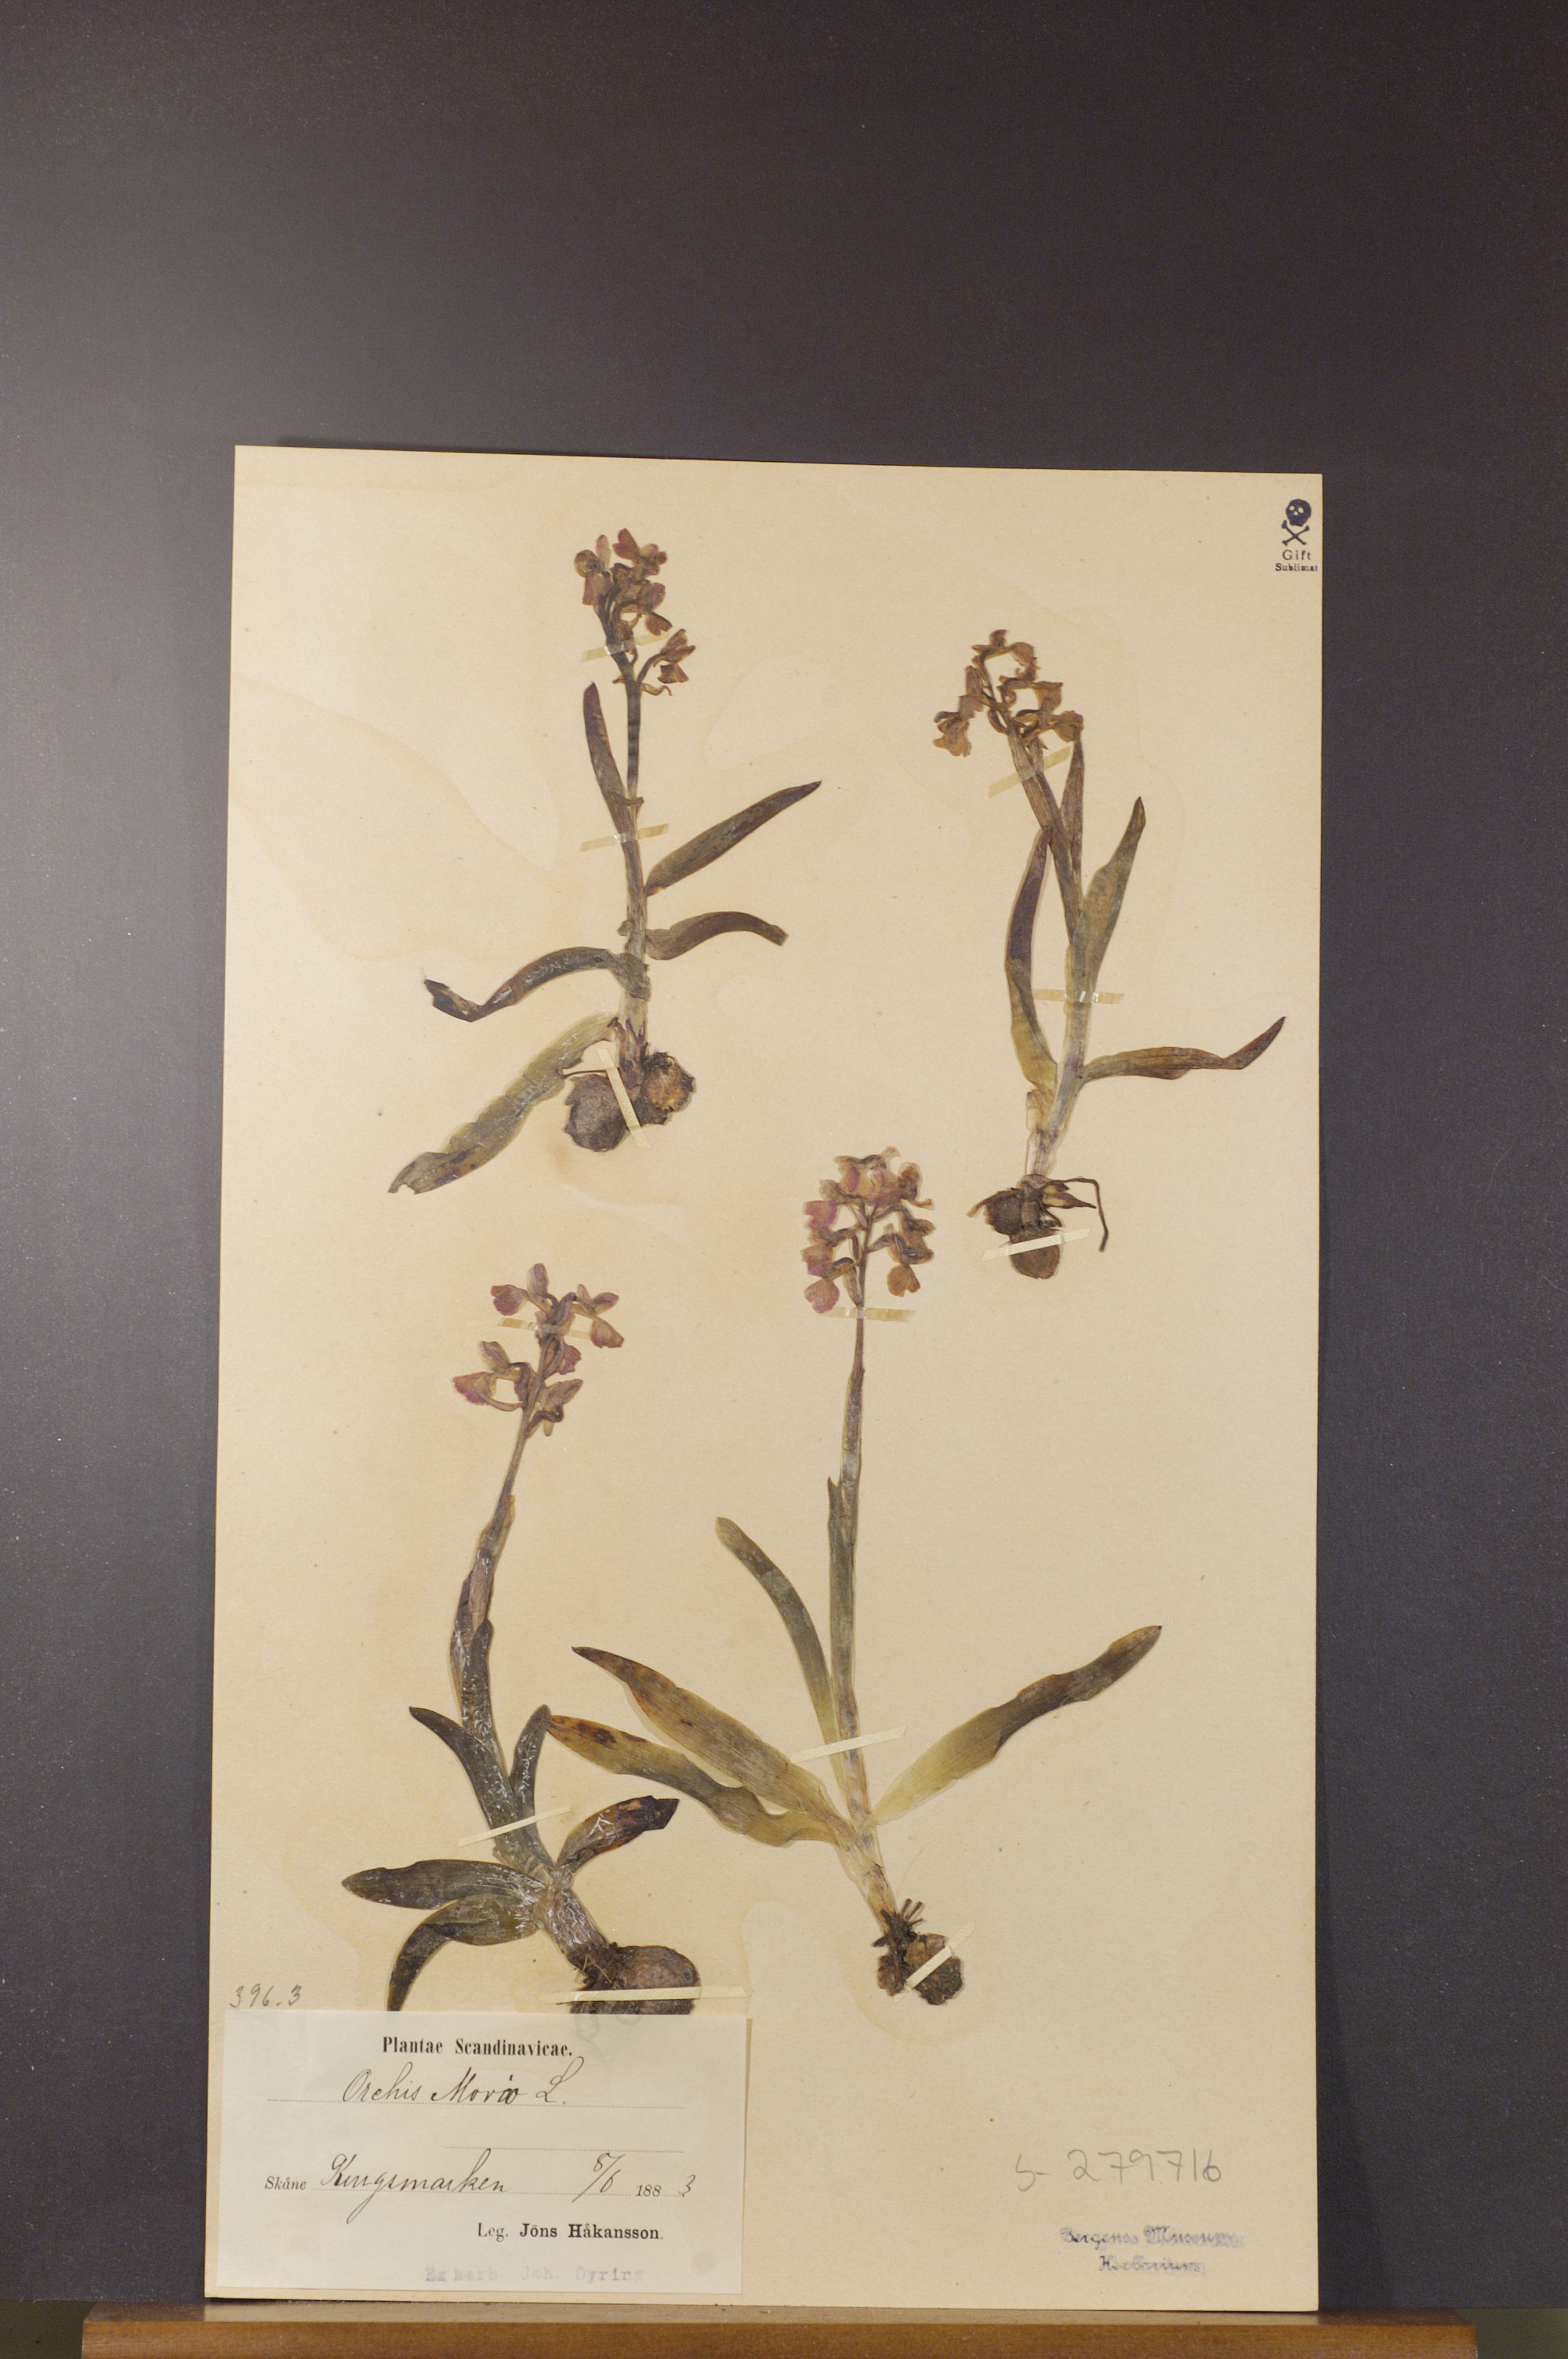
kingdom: Plantae
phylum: Tracheophyta
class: Liliopsida
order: Asparagales
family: Orchidaceae
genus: Anacamptis
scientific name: Anacamptis morio
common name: Green-winged orchid
